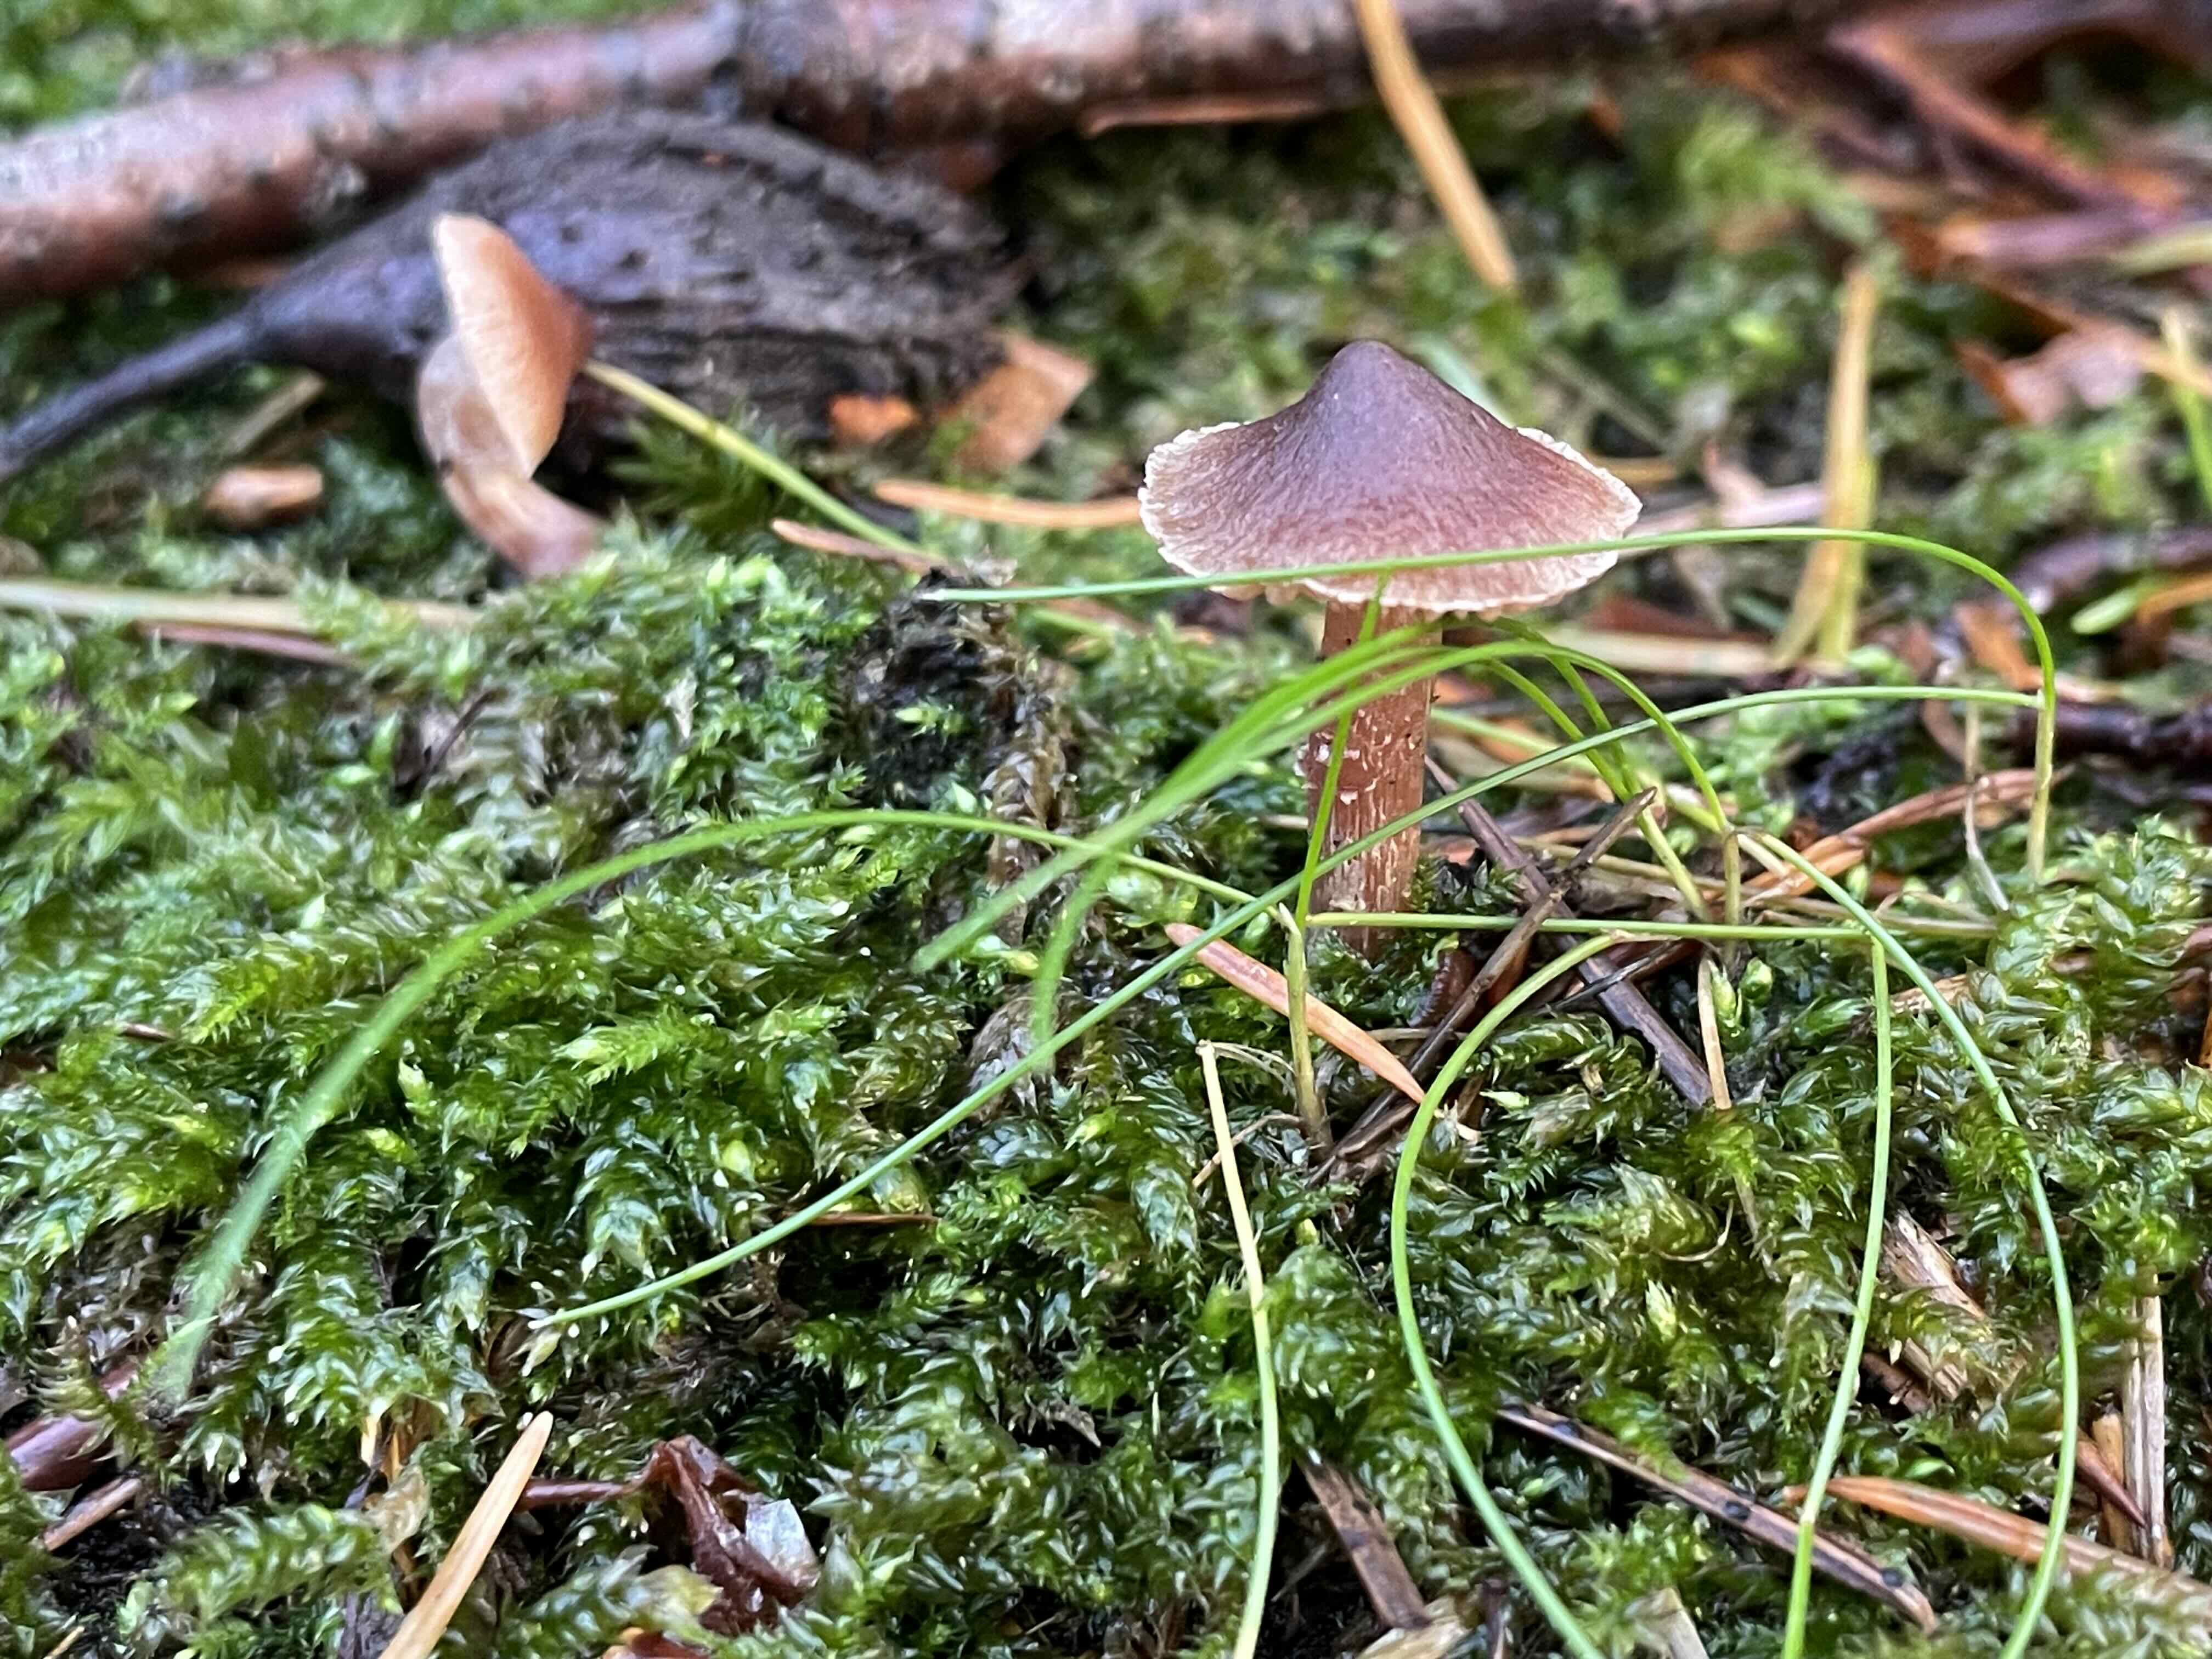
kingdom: Fungi
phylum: Basidiomycota
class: Agaricomycetes
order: Agaricales
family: Cortinariaceae
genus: Cortinarius
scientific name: Cortinarius
